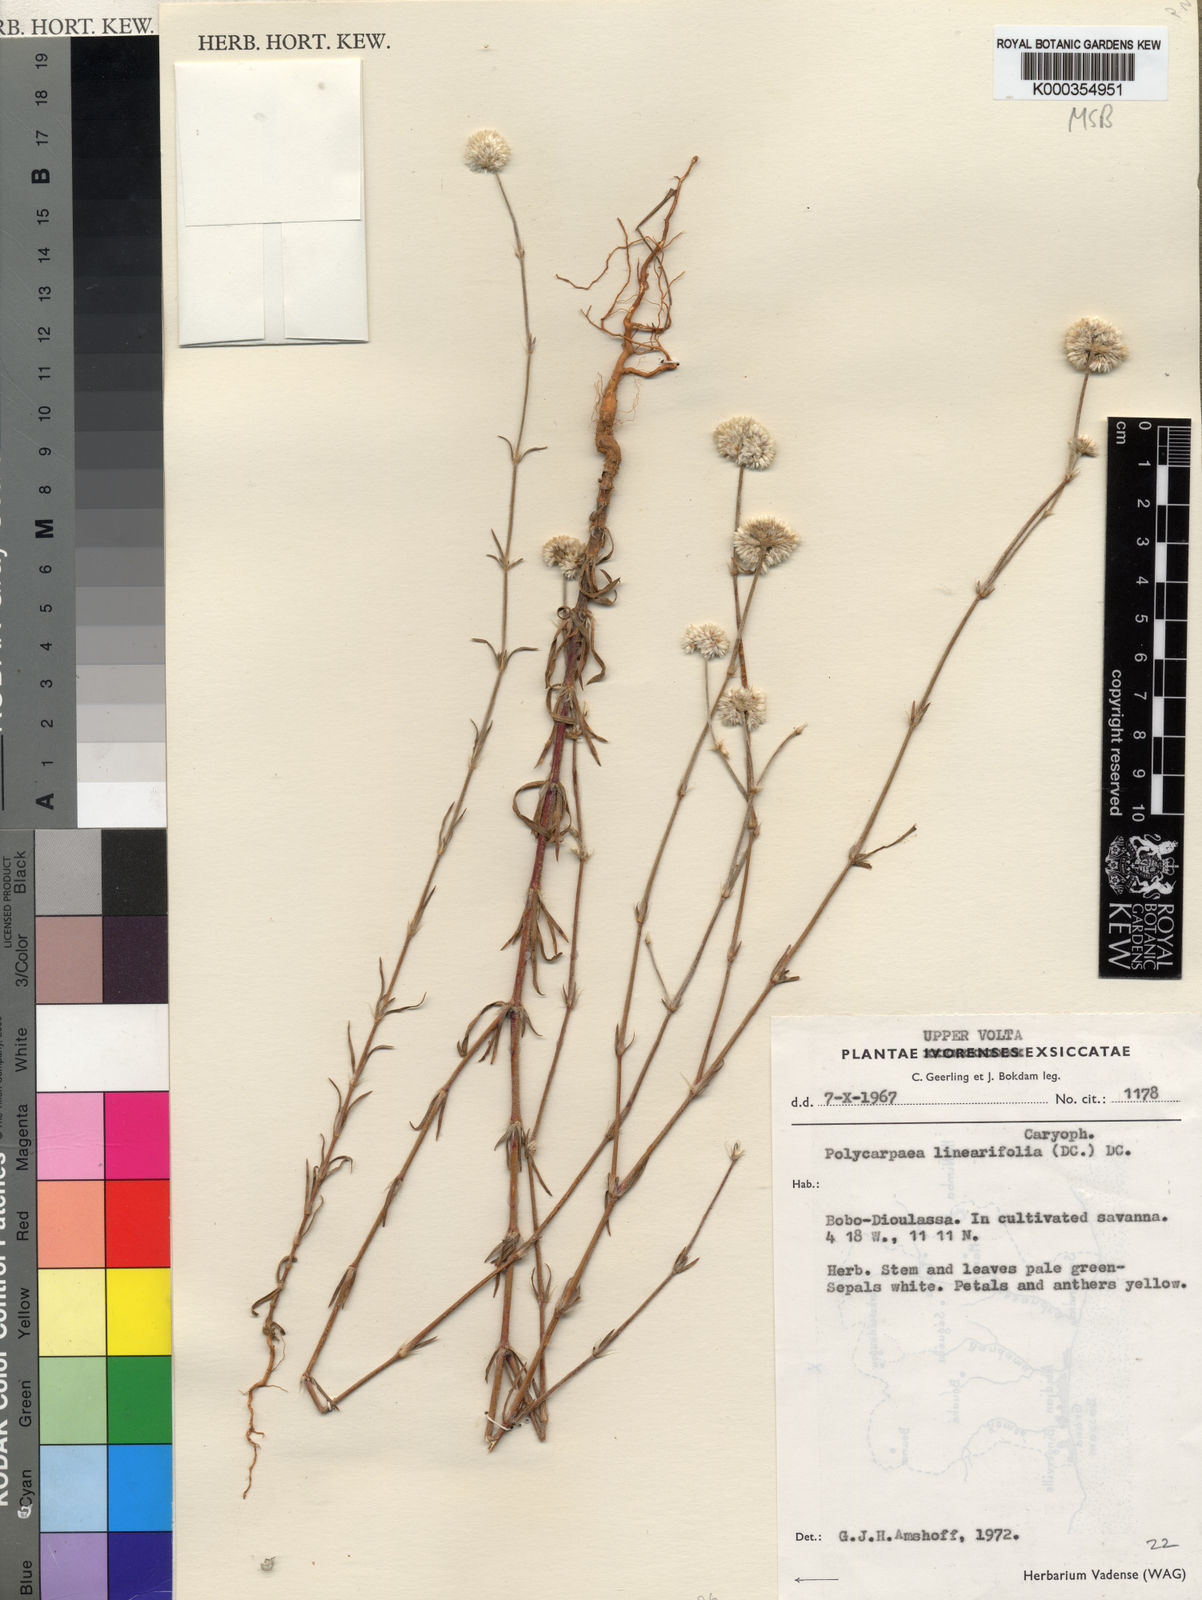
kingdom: Plantae
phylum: Tracheophyta
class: Magnoliopsida
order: Caryophyllales
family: Caryophyllaceae
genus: Polycarpaea
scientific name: Polycarpaea linearifolia
